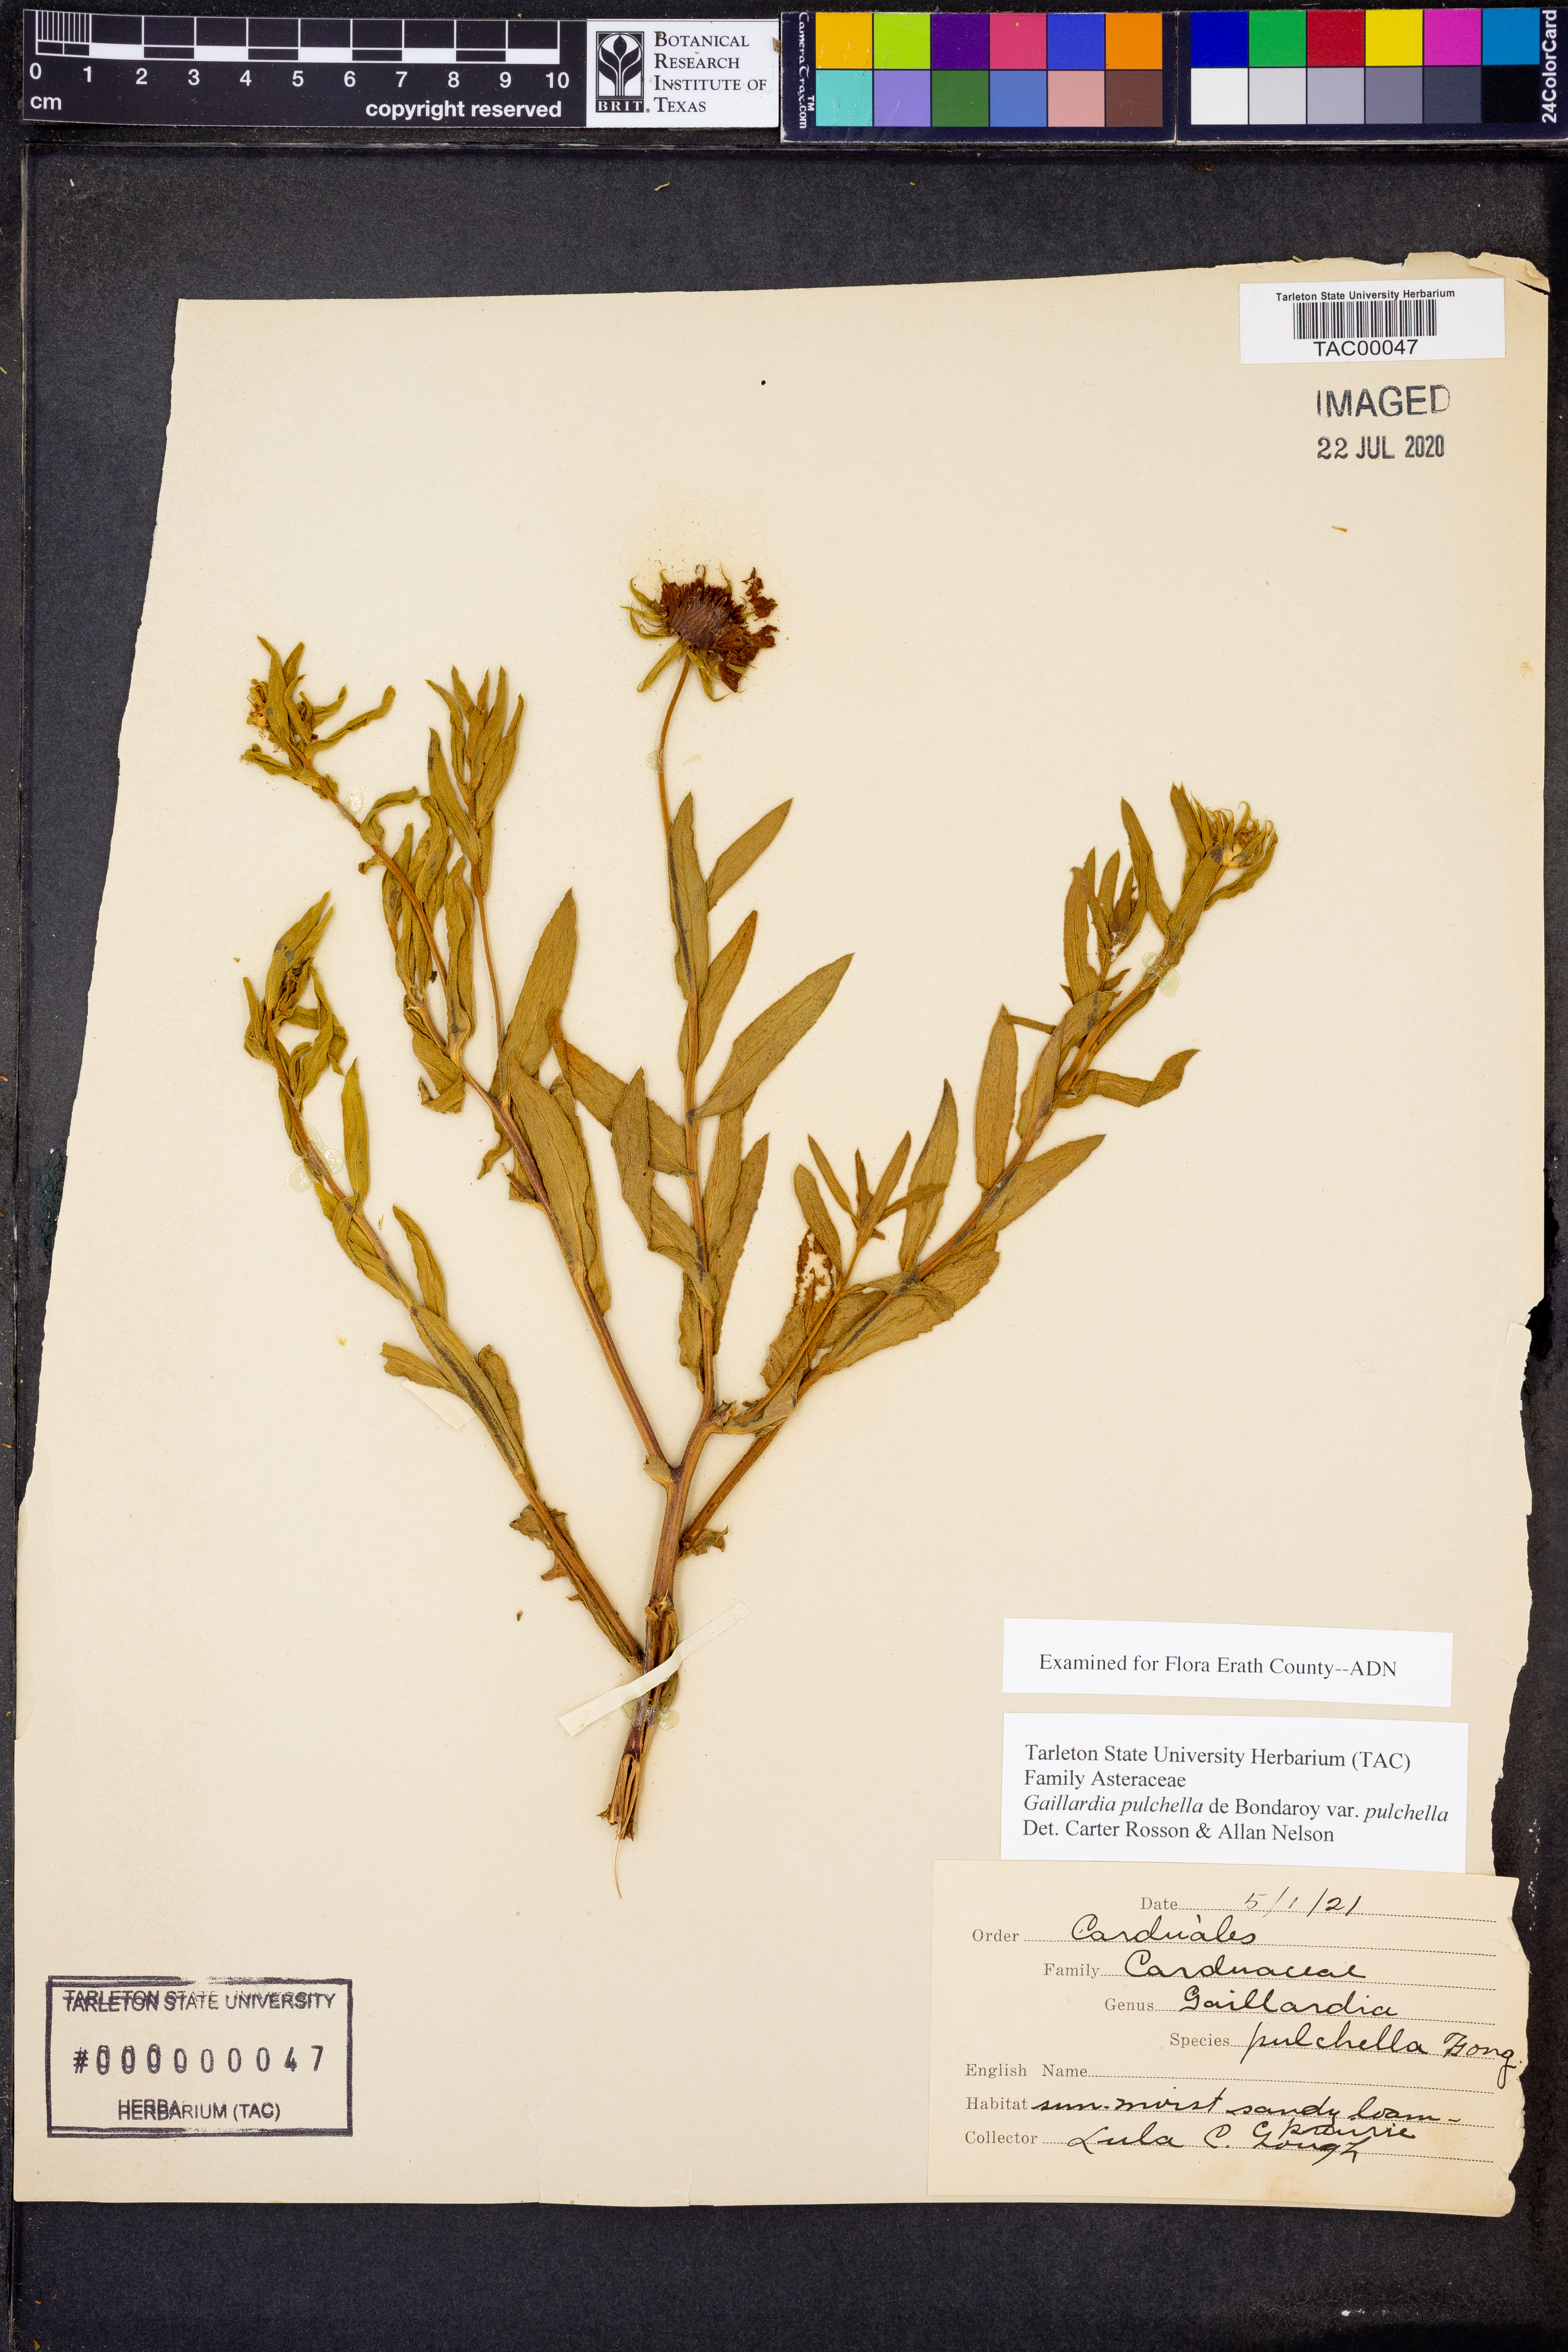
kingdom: Plantae
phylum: Tracheophyta
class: Magnoliopsida
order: Asterales
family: Asteraceae
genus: Gaillardia
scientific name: Gaillardia pulchella
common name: Firewheel
